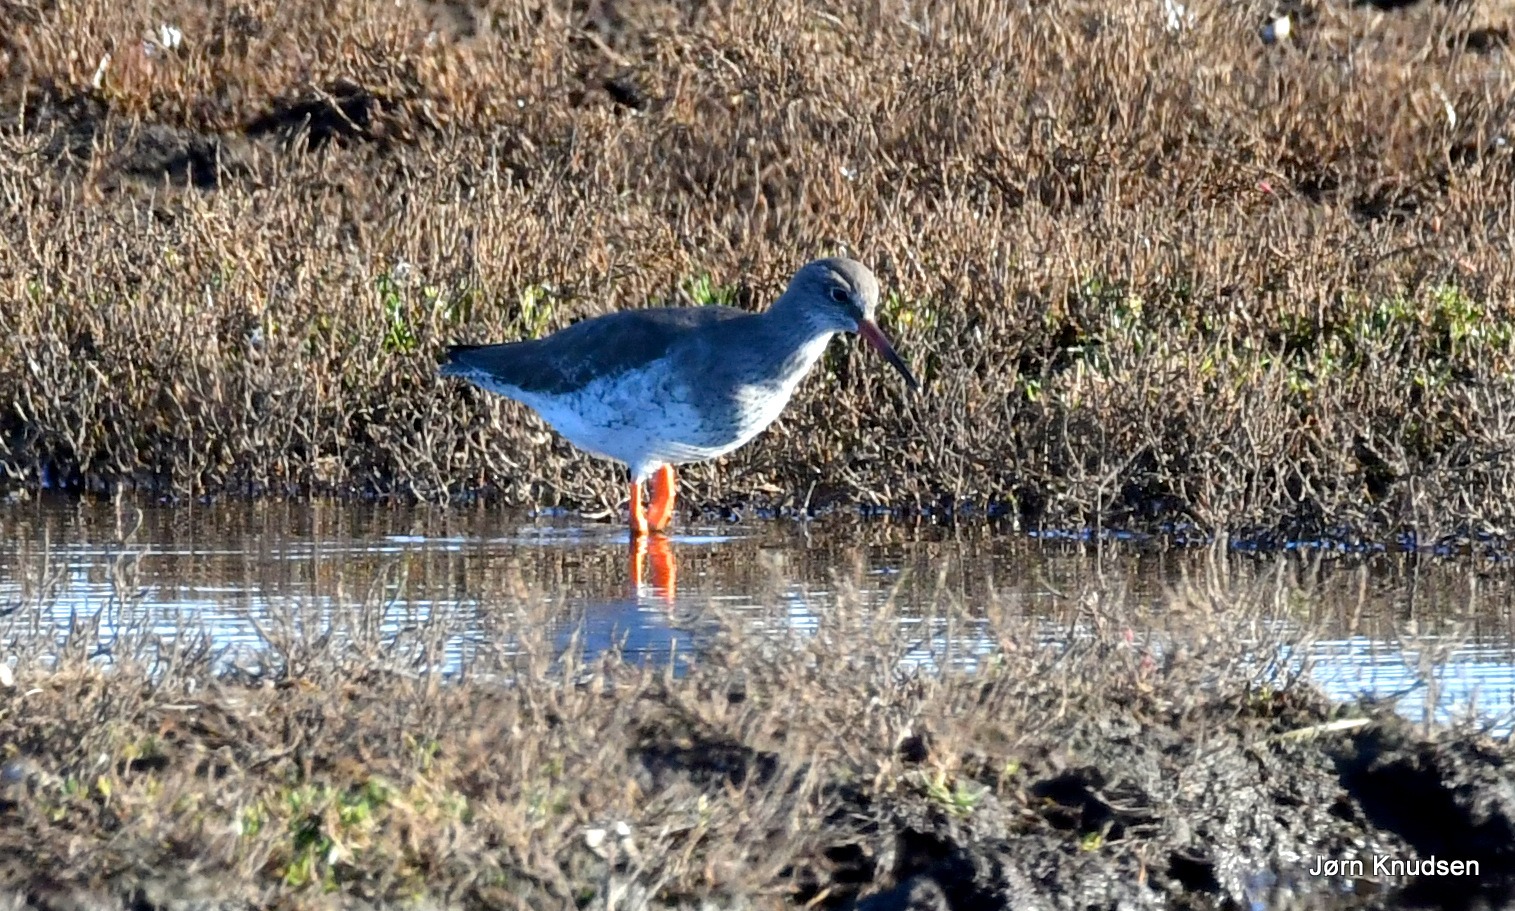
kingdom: Animalia
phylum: Chordata
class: Aves
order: Charadriiformes
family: Scolopacidae
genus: Tringa
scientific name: Tringa totanus
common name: Rødben
